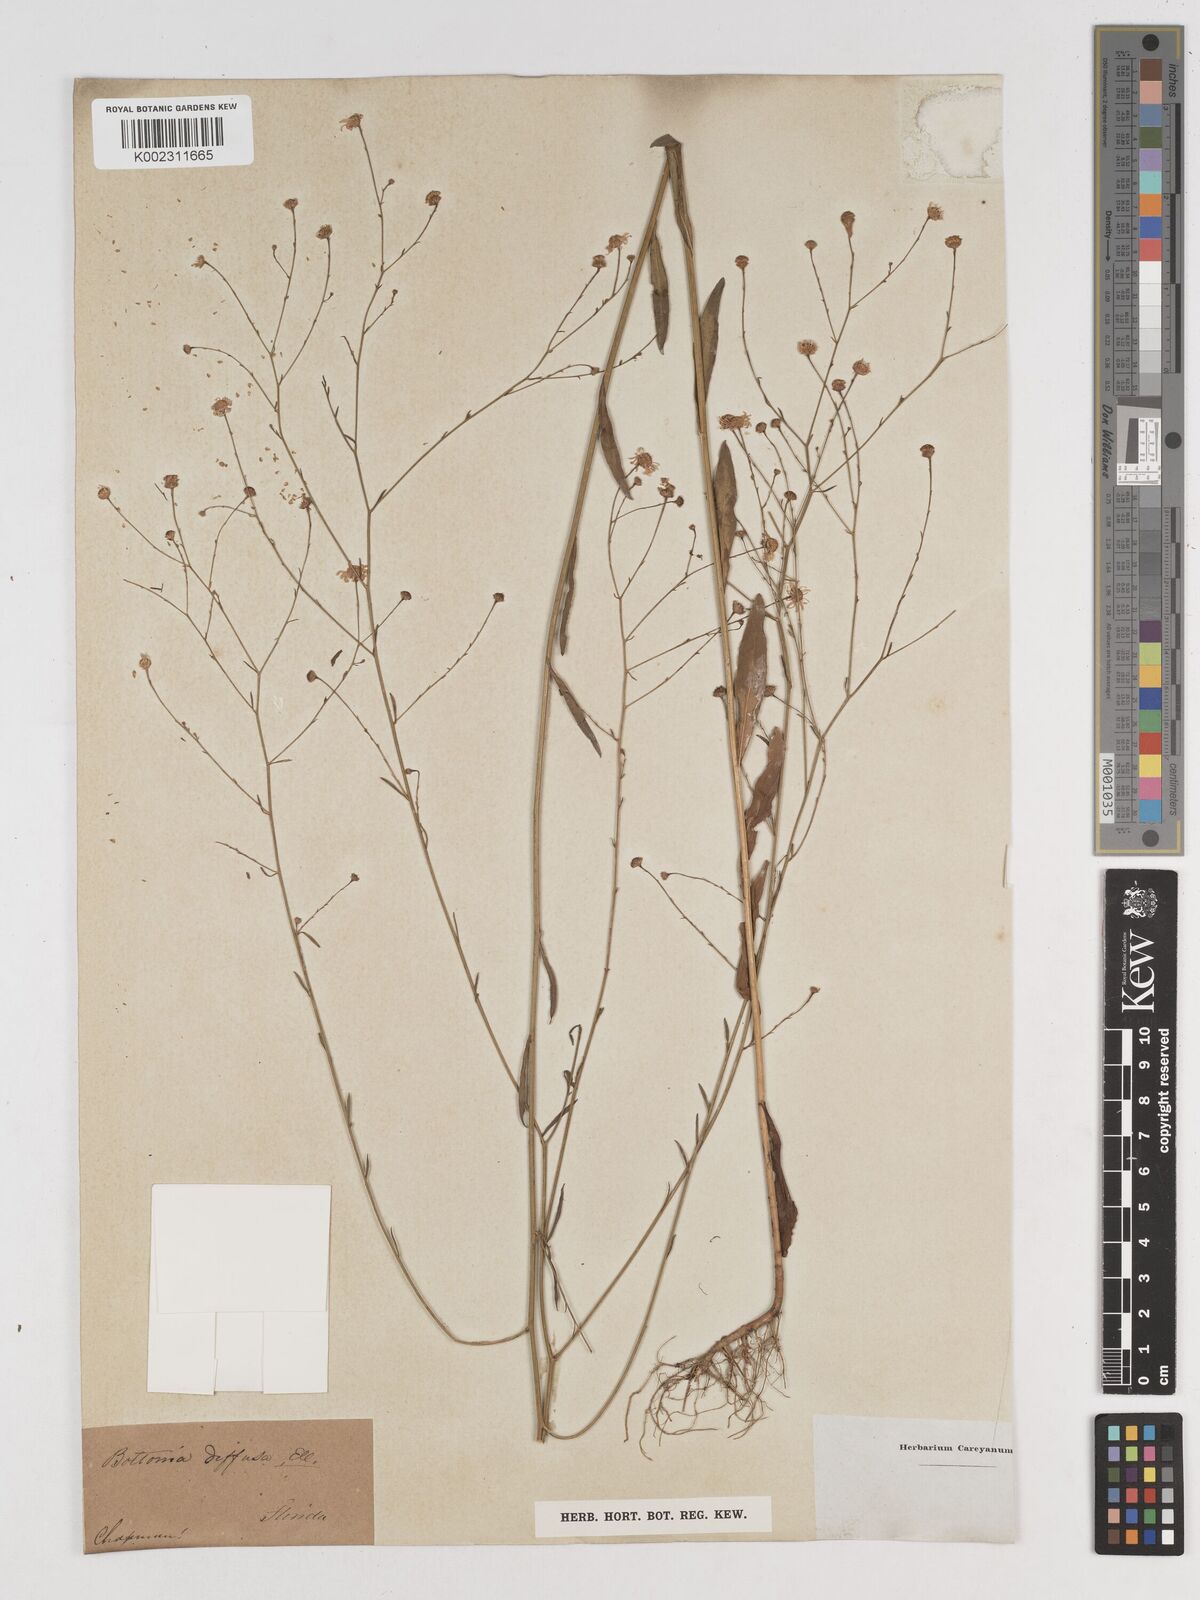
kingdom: Plantae
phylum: Tracheophyta
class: Magnoliopsida
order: Asterales
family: Asteraceae
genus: Boltonia
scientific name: Boltonia diffusa
